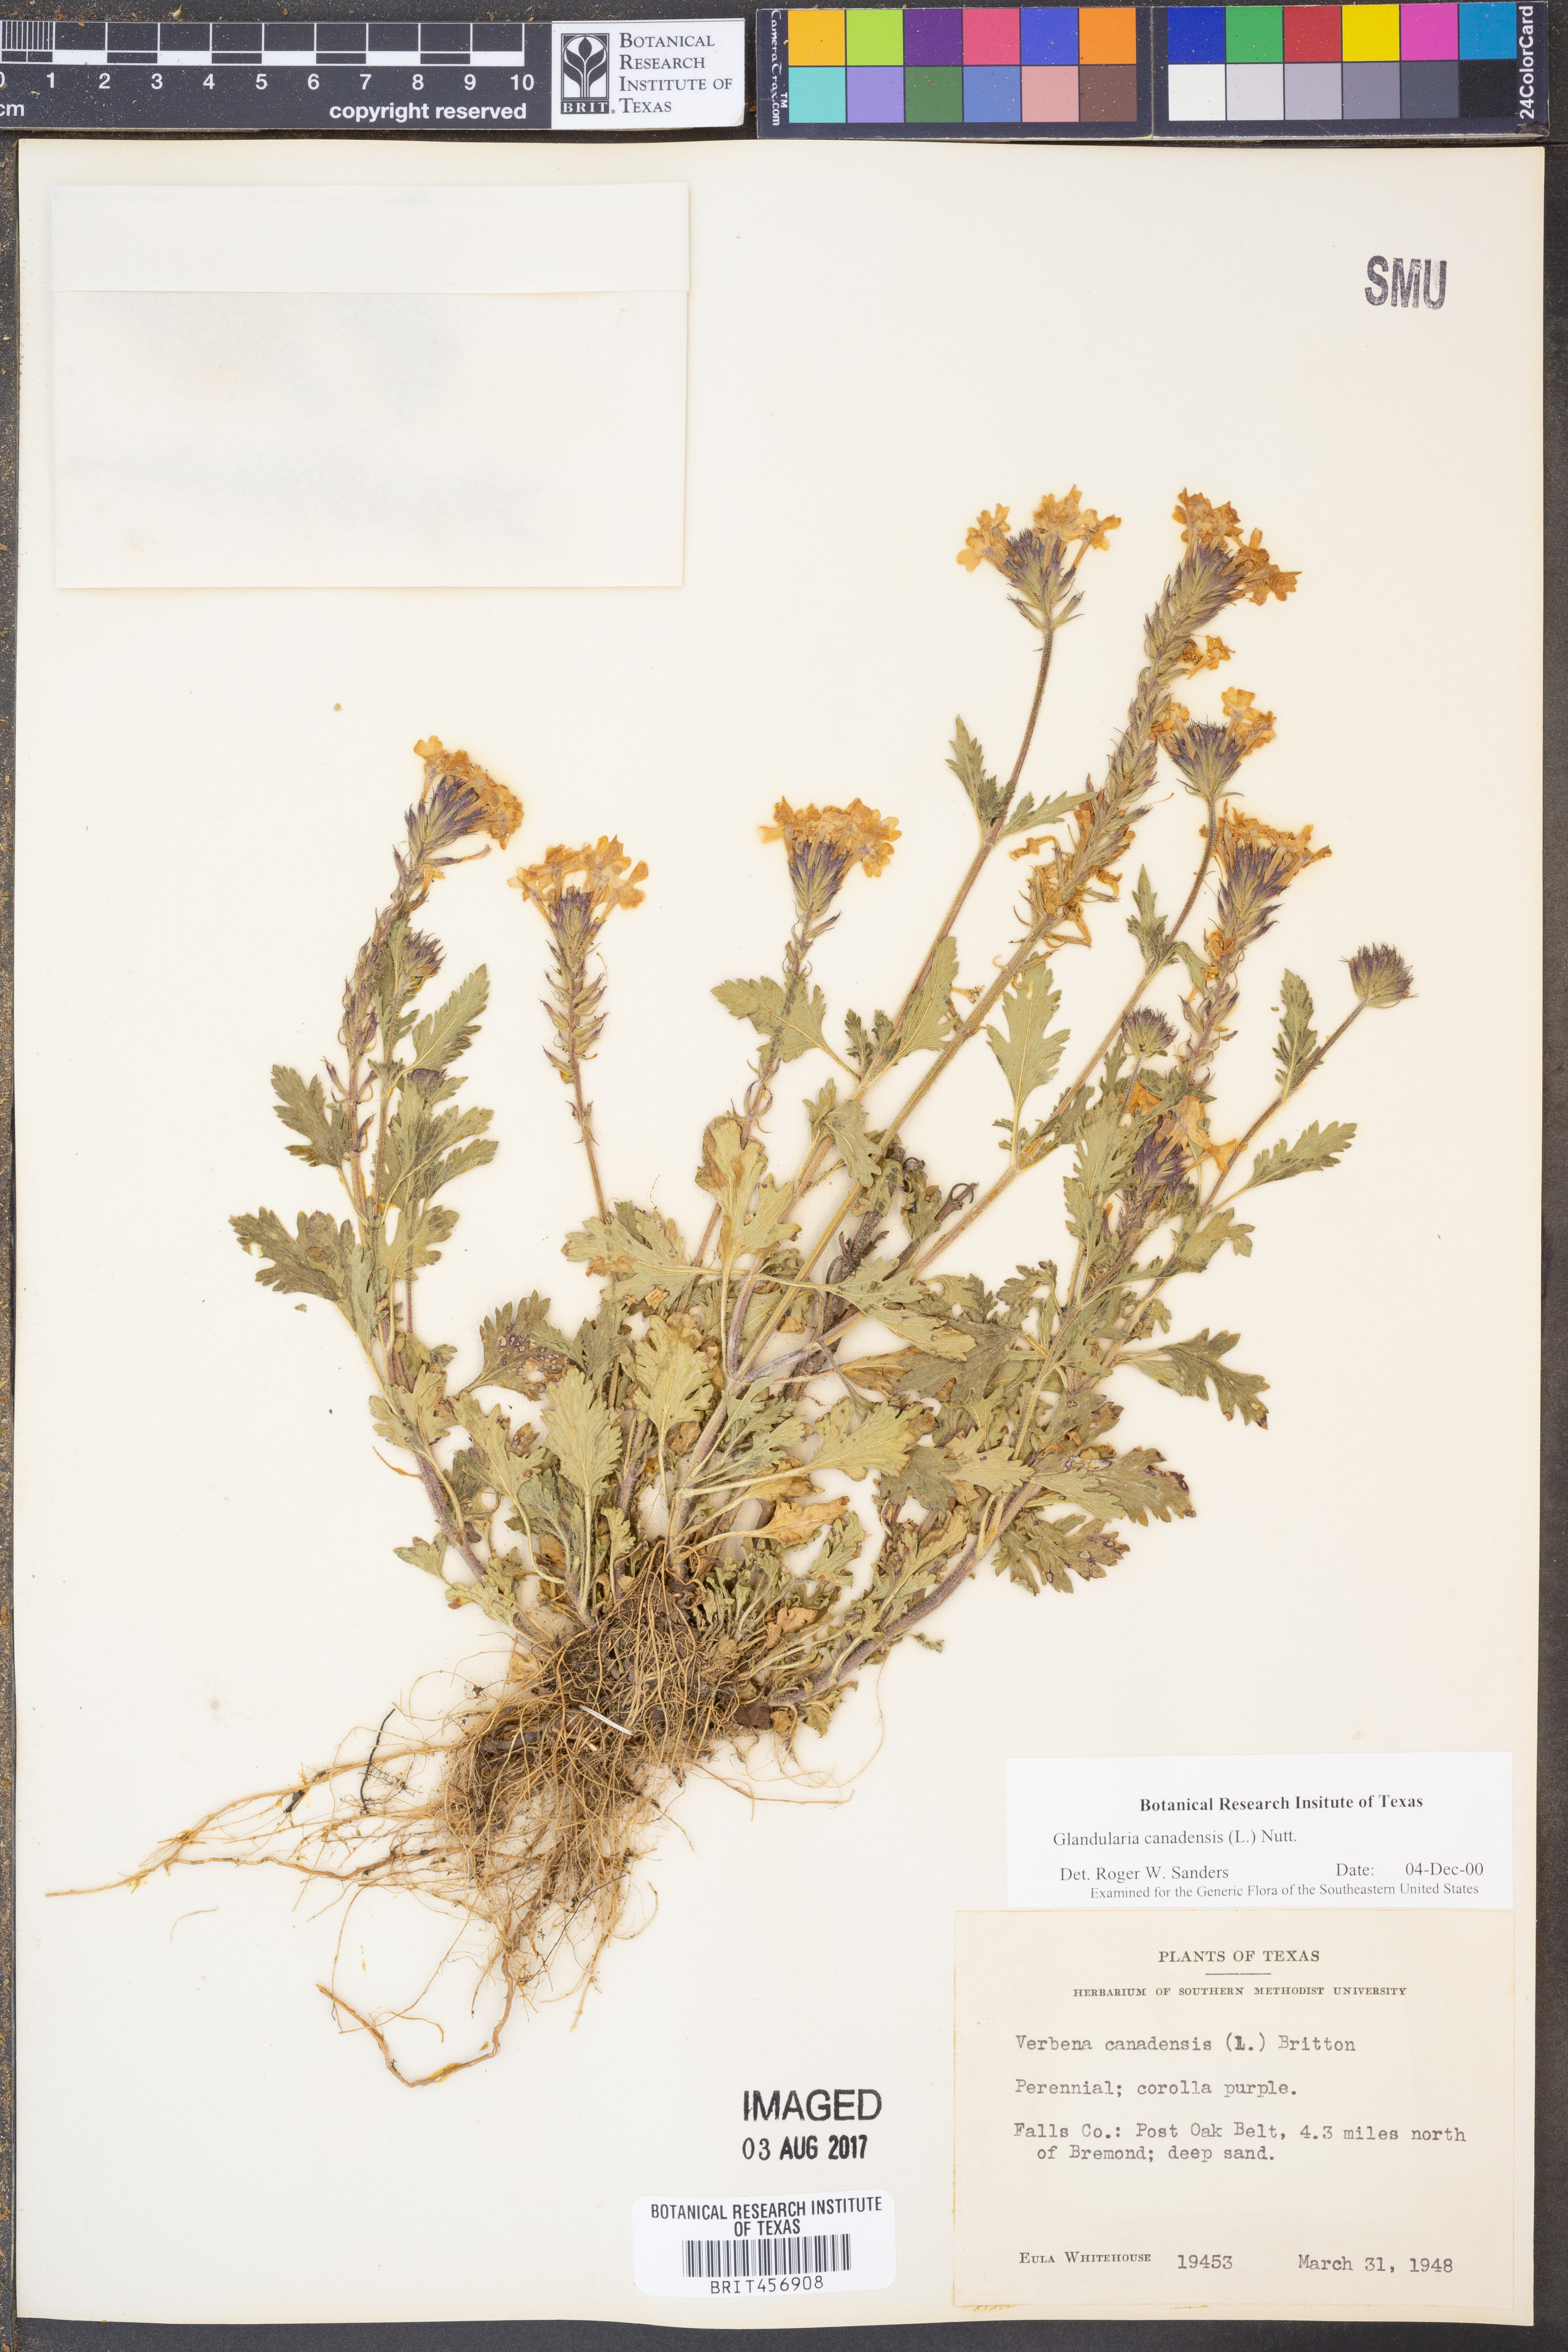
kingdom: Plantae
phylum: Tracheophyta
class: Magnoliopsida
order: Lamiales
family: Verbenaceae
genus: Verbena
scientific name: Verbena canadensis
